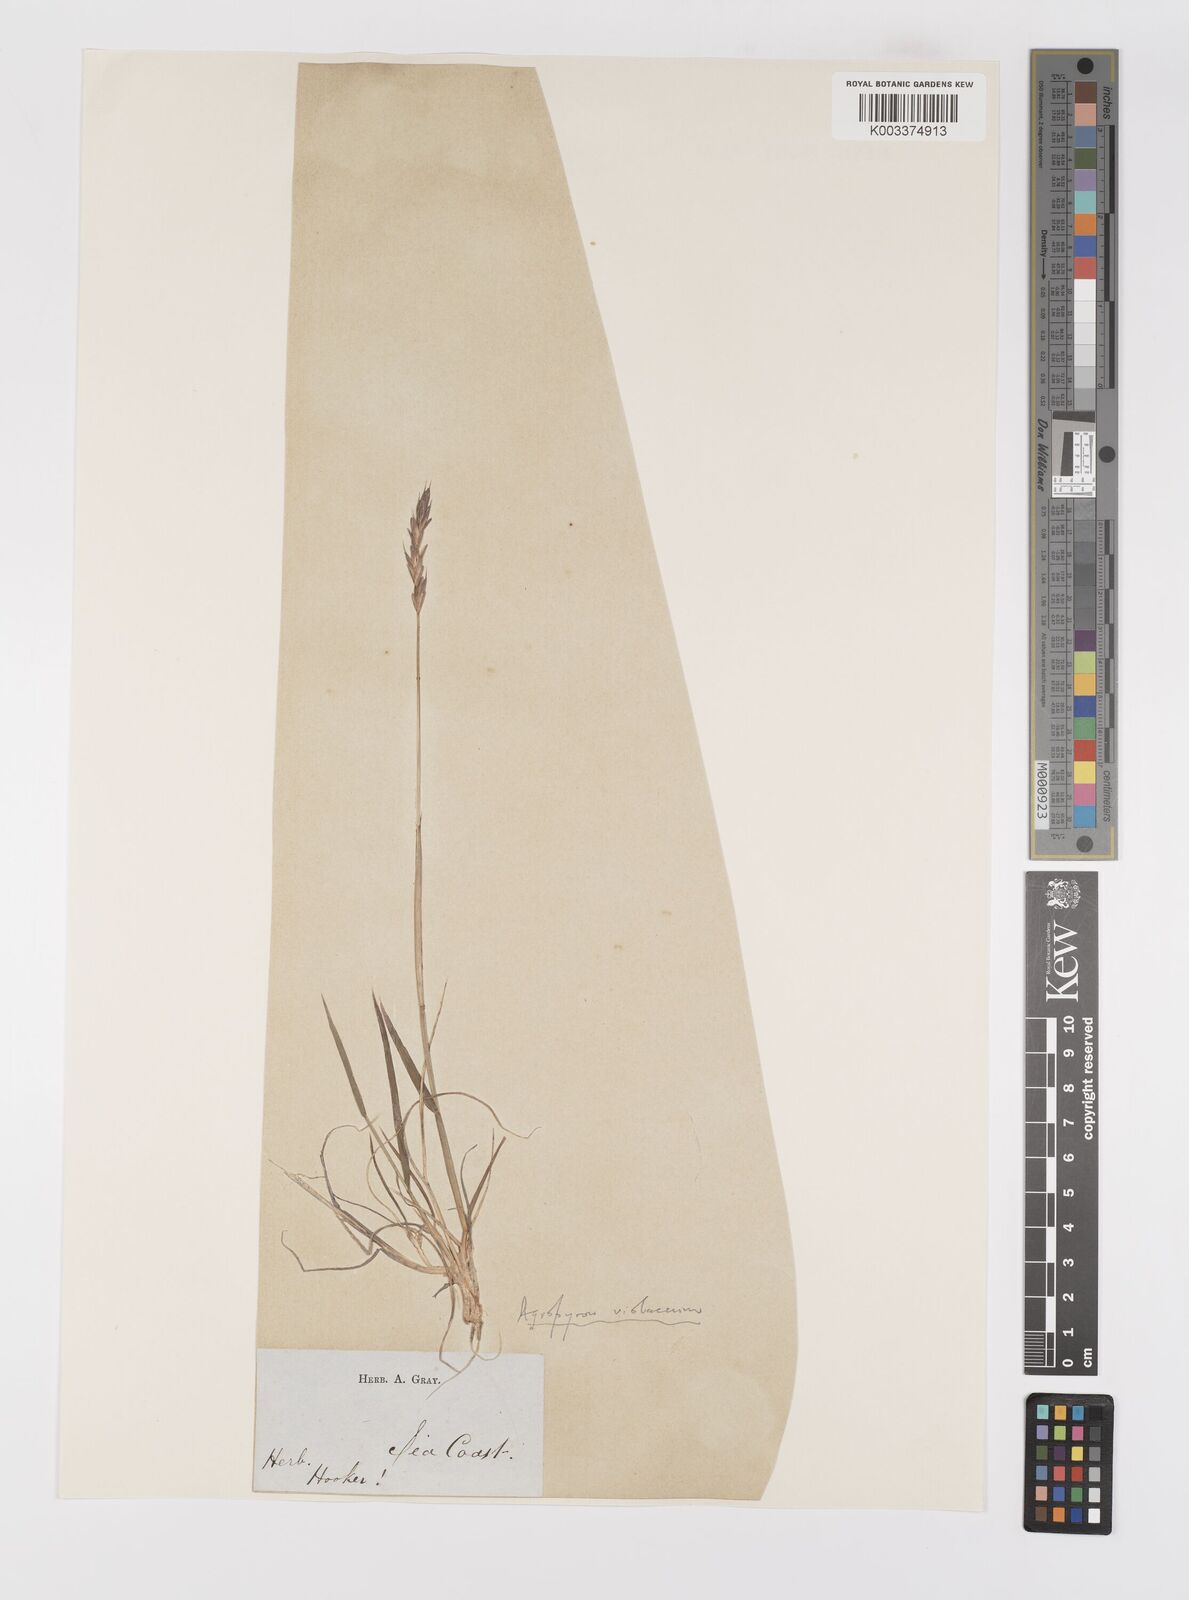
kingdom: Plantae
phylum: Tracheophyta
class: Liliopsida
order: Poales
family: Poaceae
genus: Elymus
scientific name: Elymus violaceus
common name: Arctic wheatgrass
